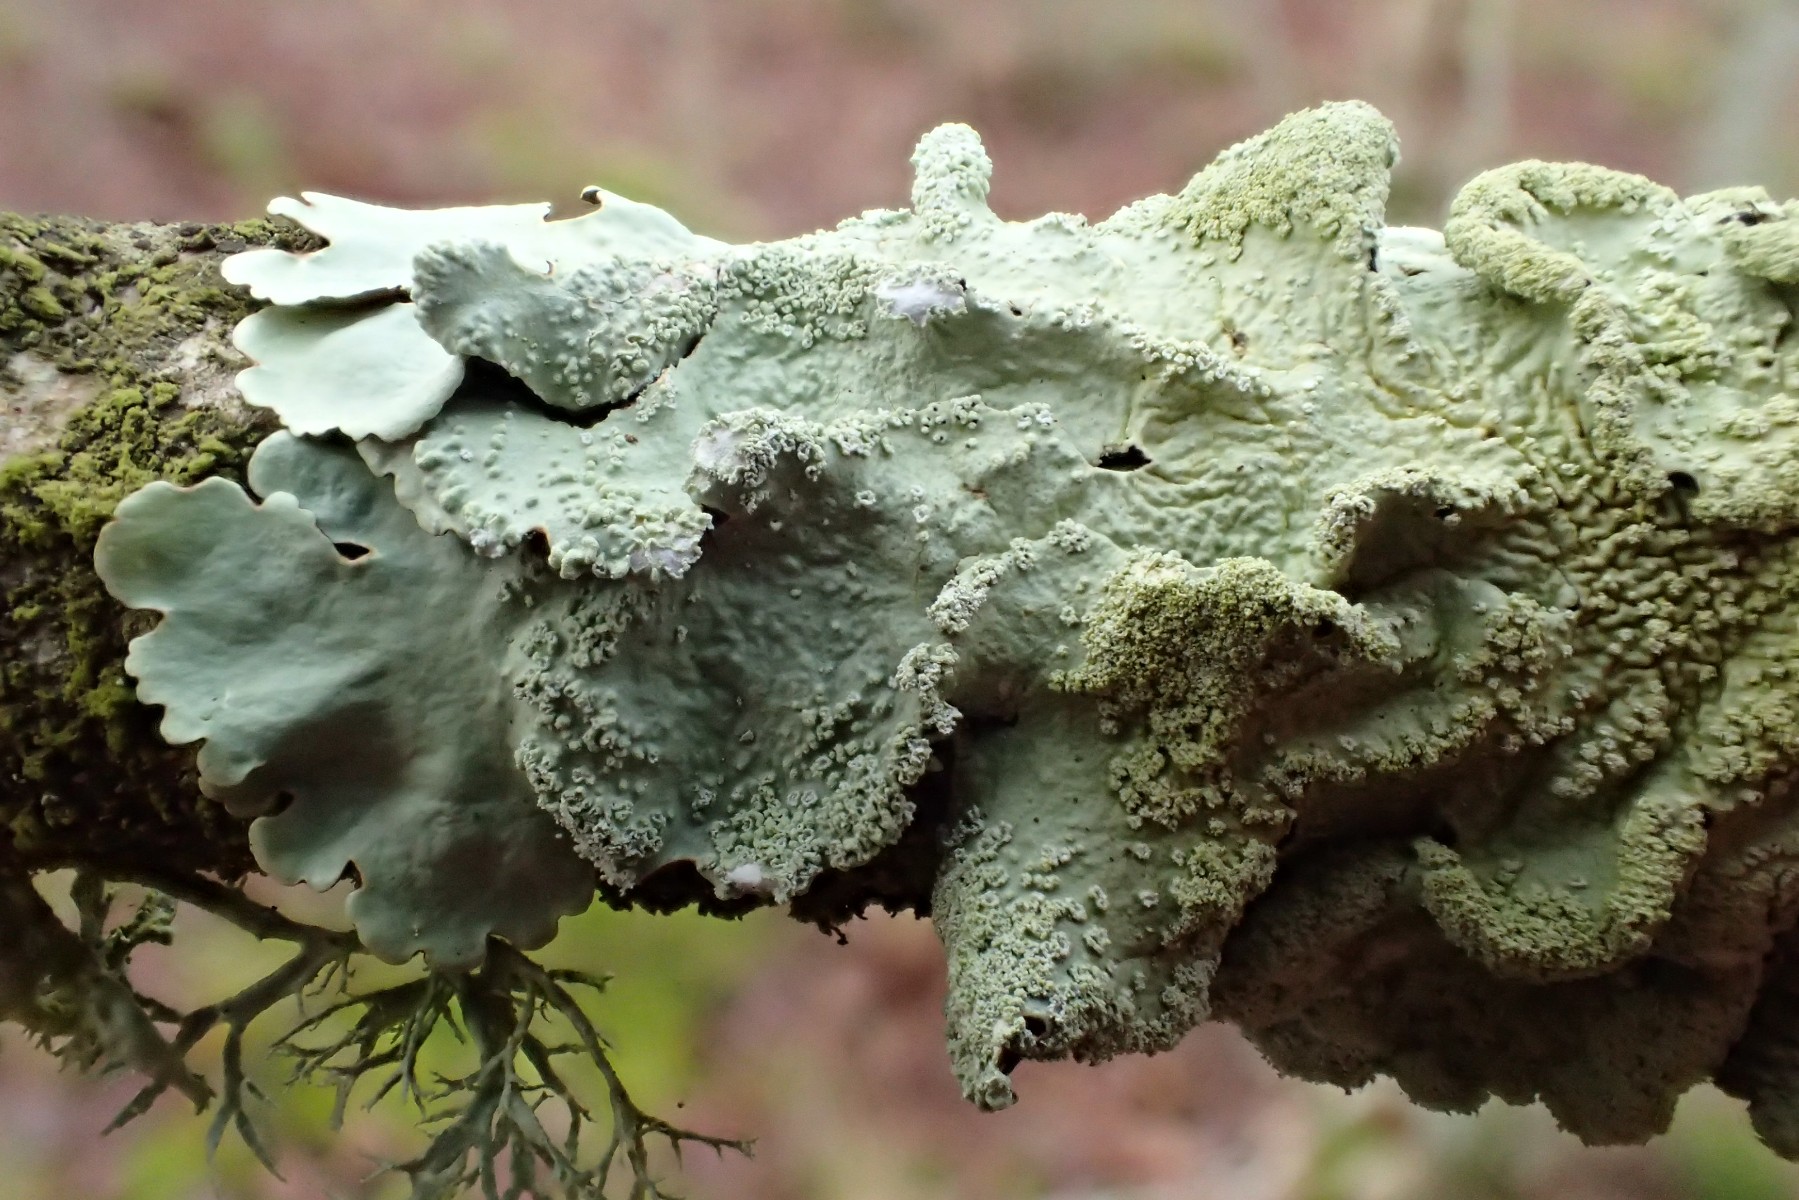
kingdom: Fungi
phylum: Ascomycota
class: Lecanoromycetes
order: Lecanorales
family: Parmeliaceae
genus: Flavoparmelia
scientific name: Flavoparmelia caperata
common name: gulgrøn skållav
